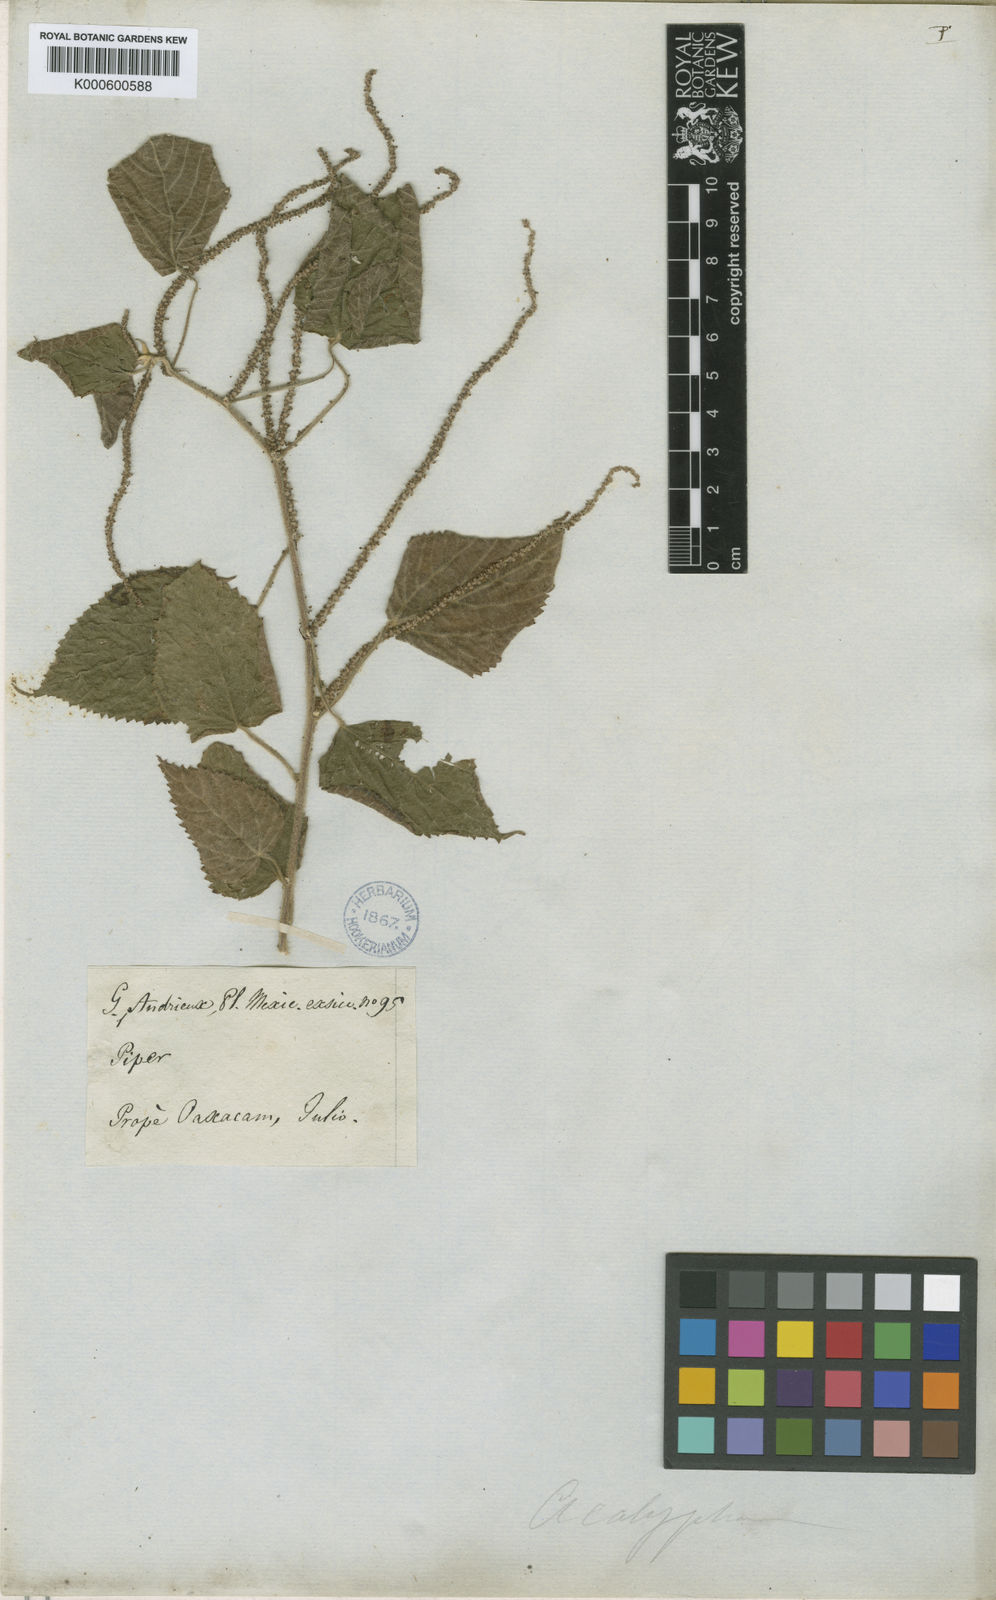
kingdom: Plantae
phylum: Tracheophyta
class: Magnoliopsida
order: Malpighiales
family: Euphorbiaceae
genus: Acalypha
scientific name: Acalypha
